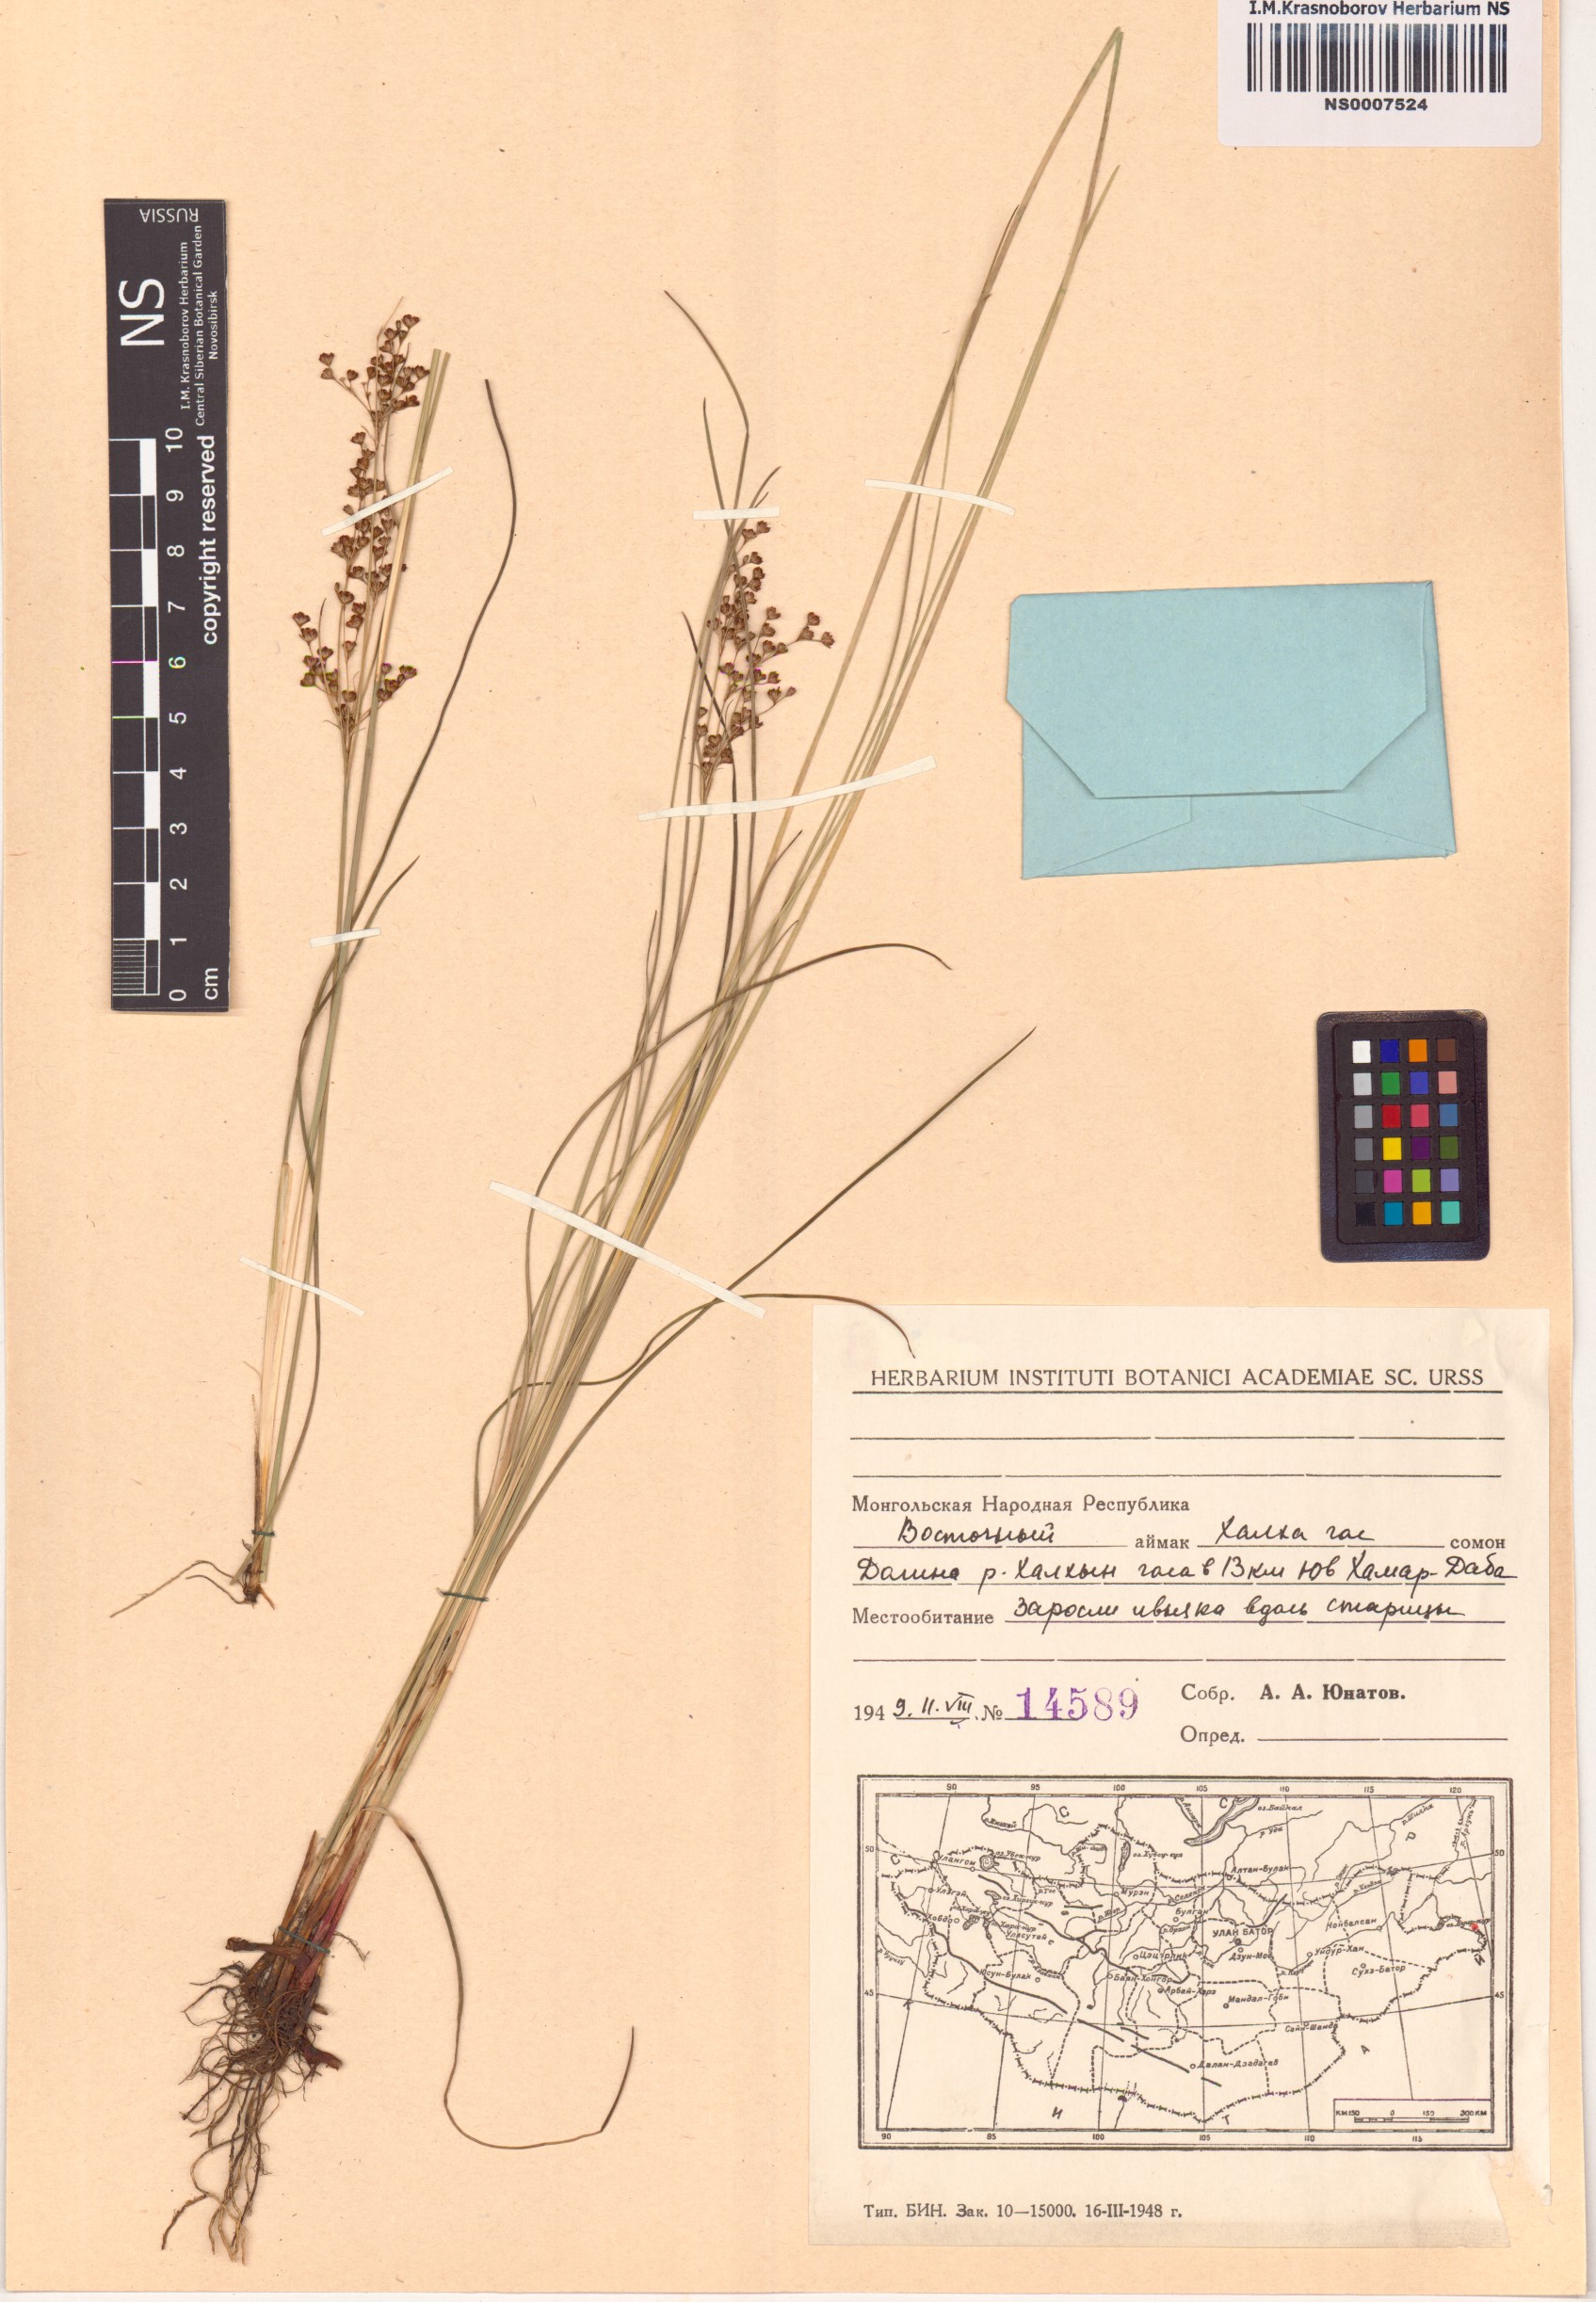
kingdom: Plantae
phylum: Tracheophyta
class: Liliopsida
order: Poales
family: Juncaceae
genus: Juncus
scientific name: Juncus compressus
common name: Round-fruited rush
